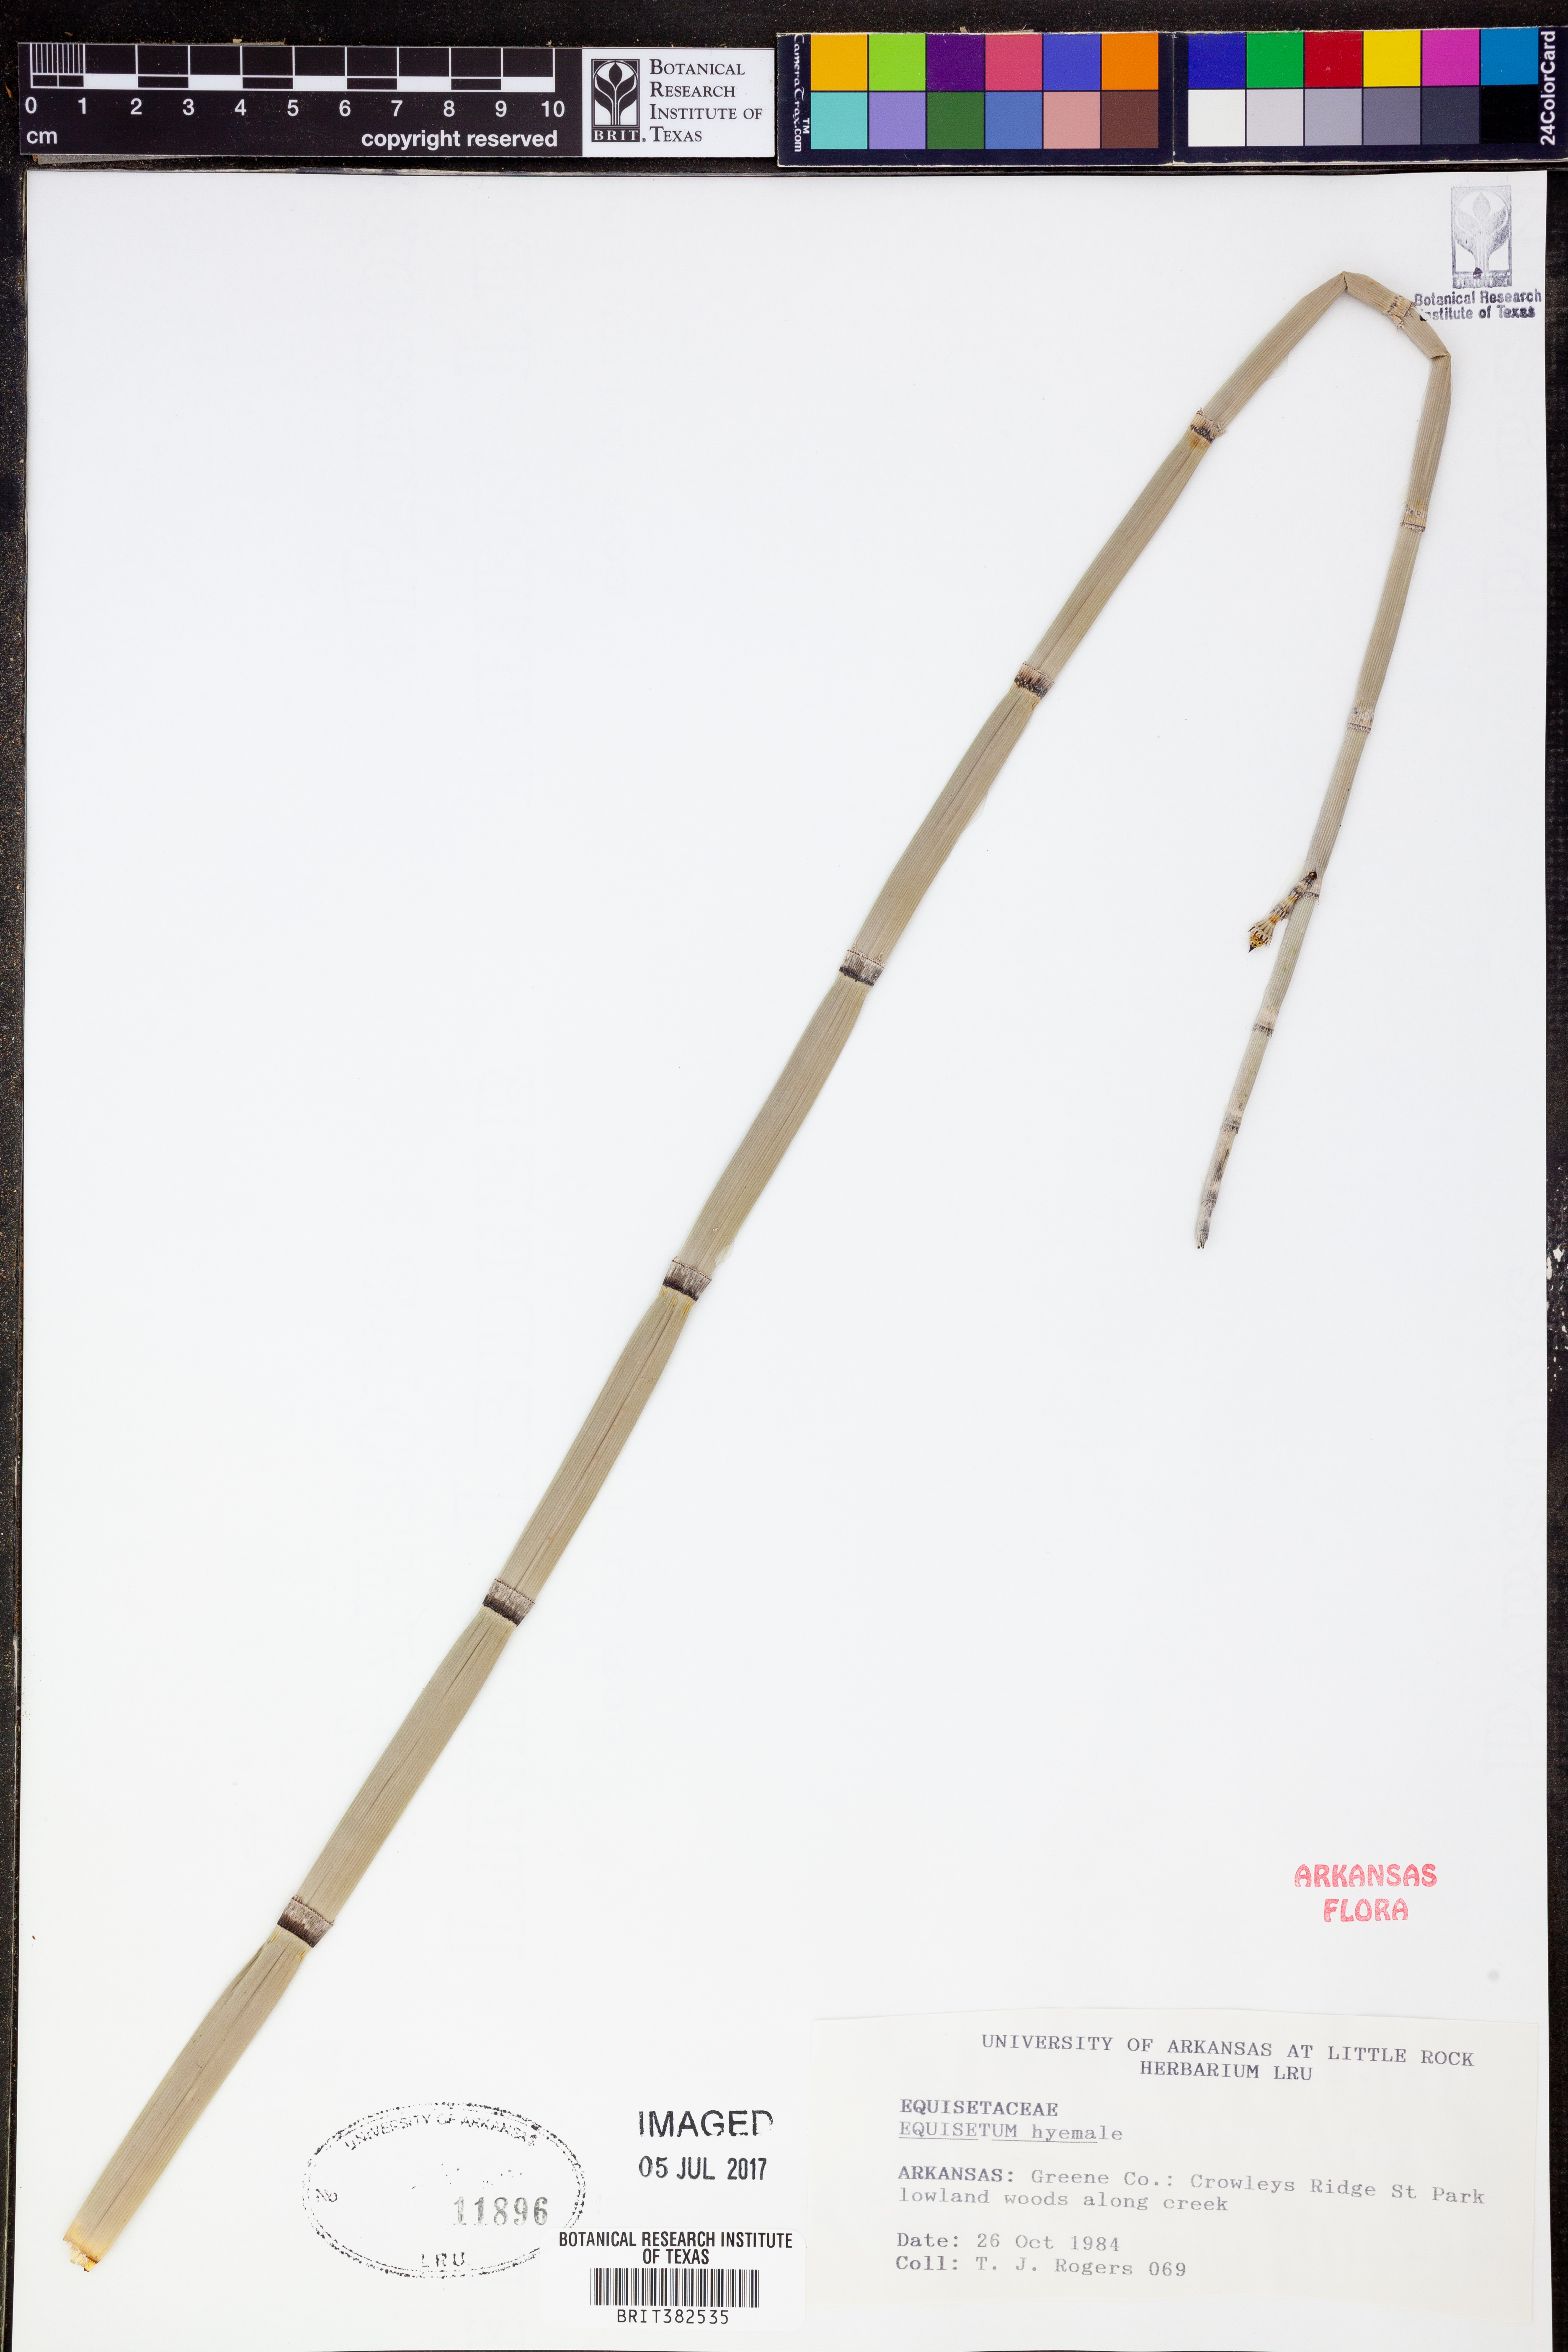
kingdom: Plantae
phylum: Tracheophyta
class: Polypodiopsida
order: Equisetales
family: Equisetaceae
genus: Equisetum
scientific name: Equisetum hyemale
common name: Rough horsetail
